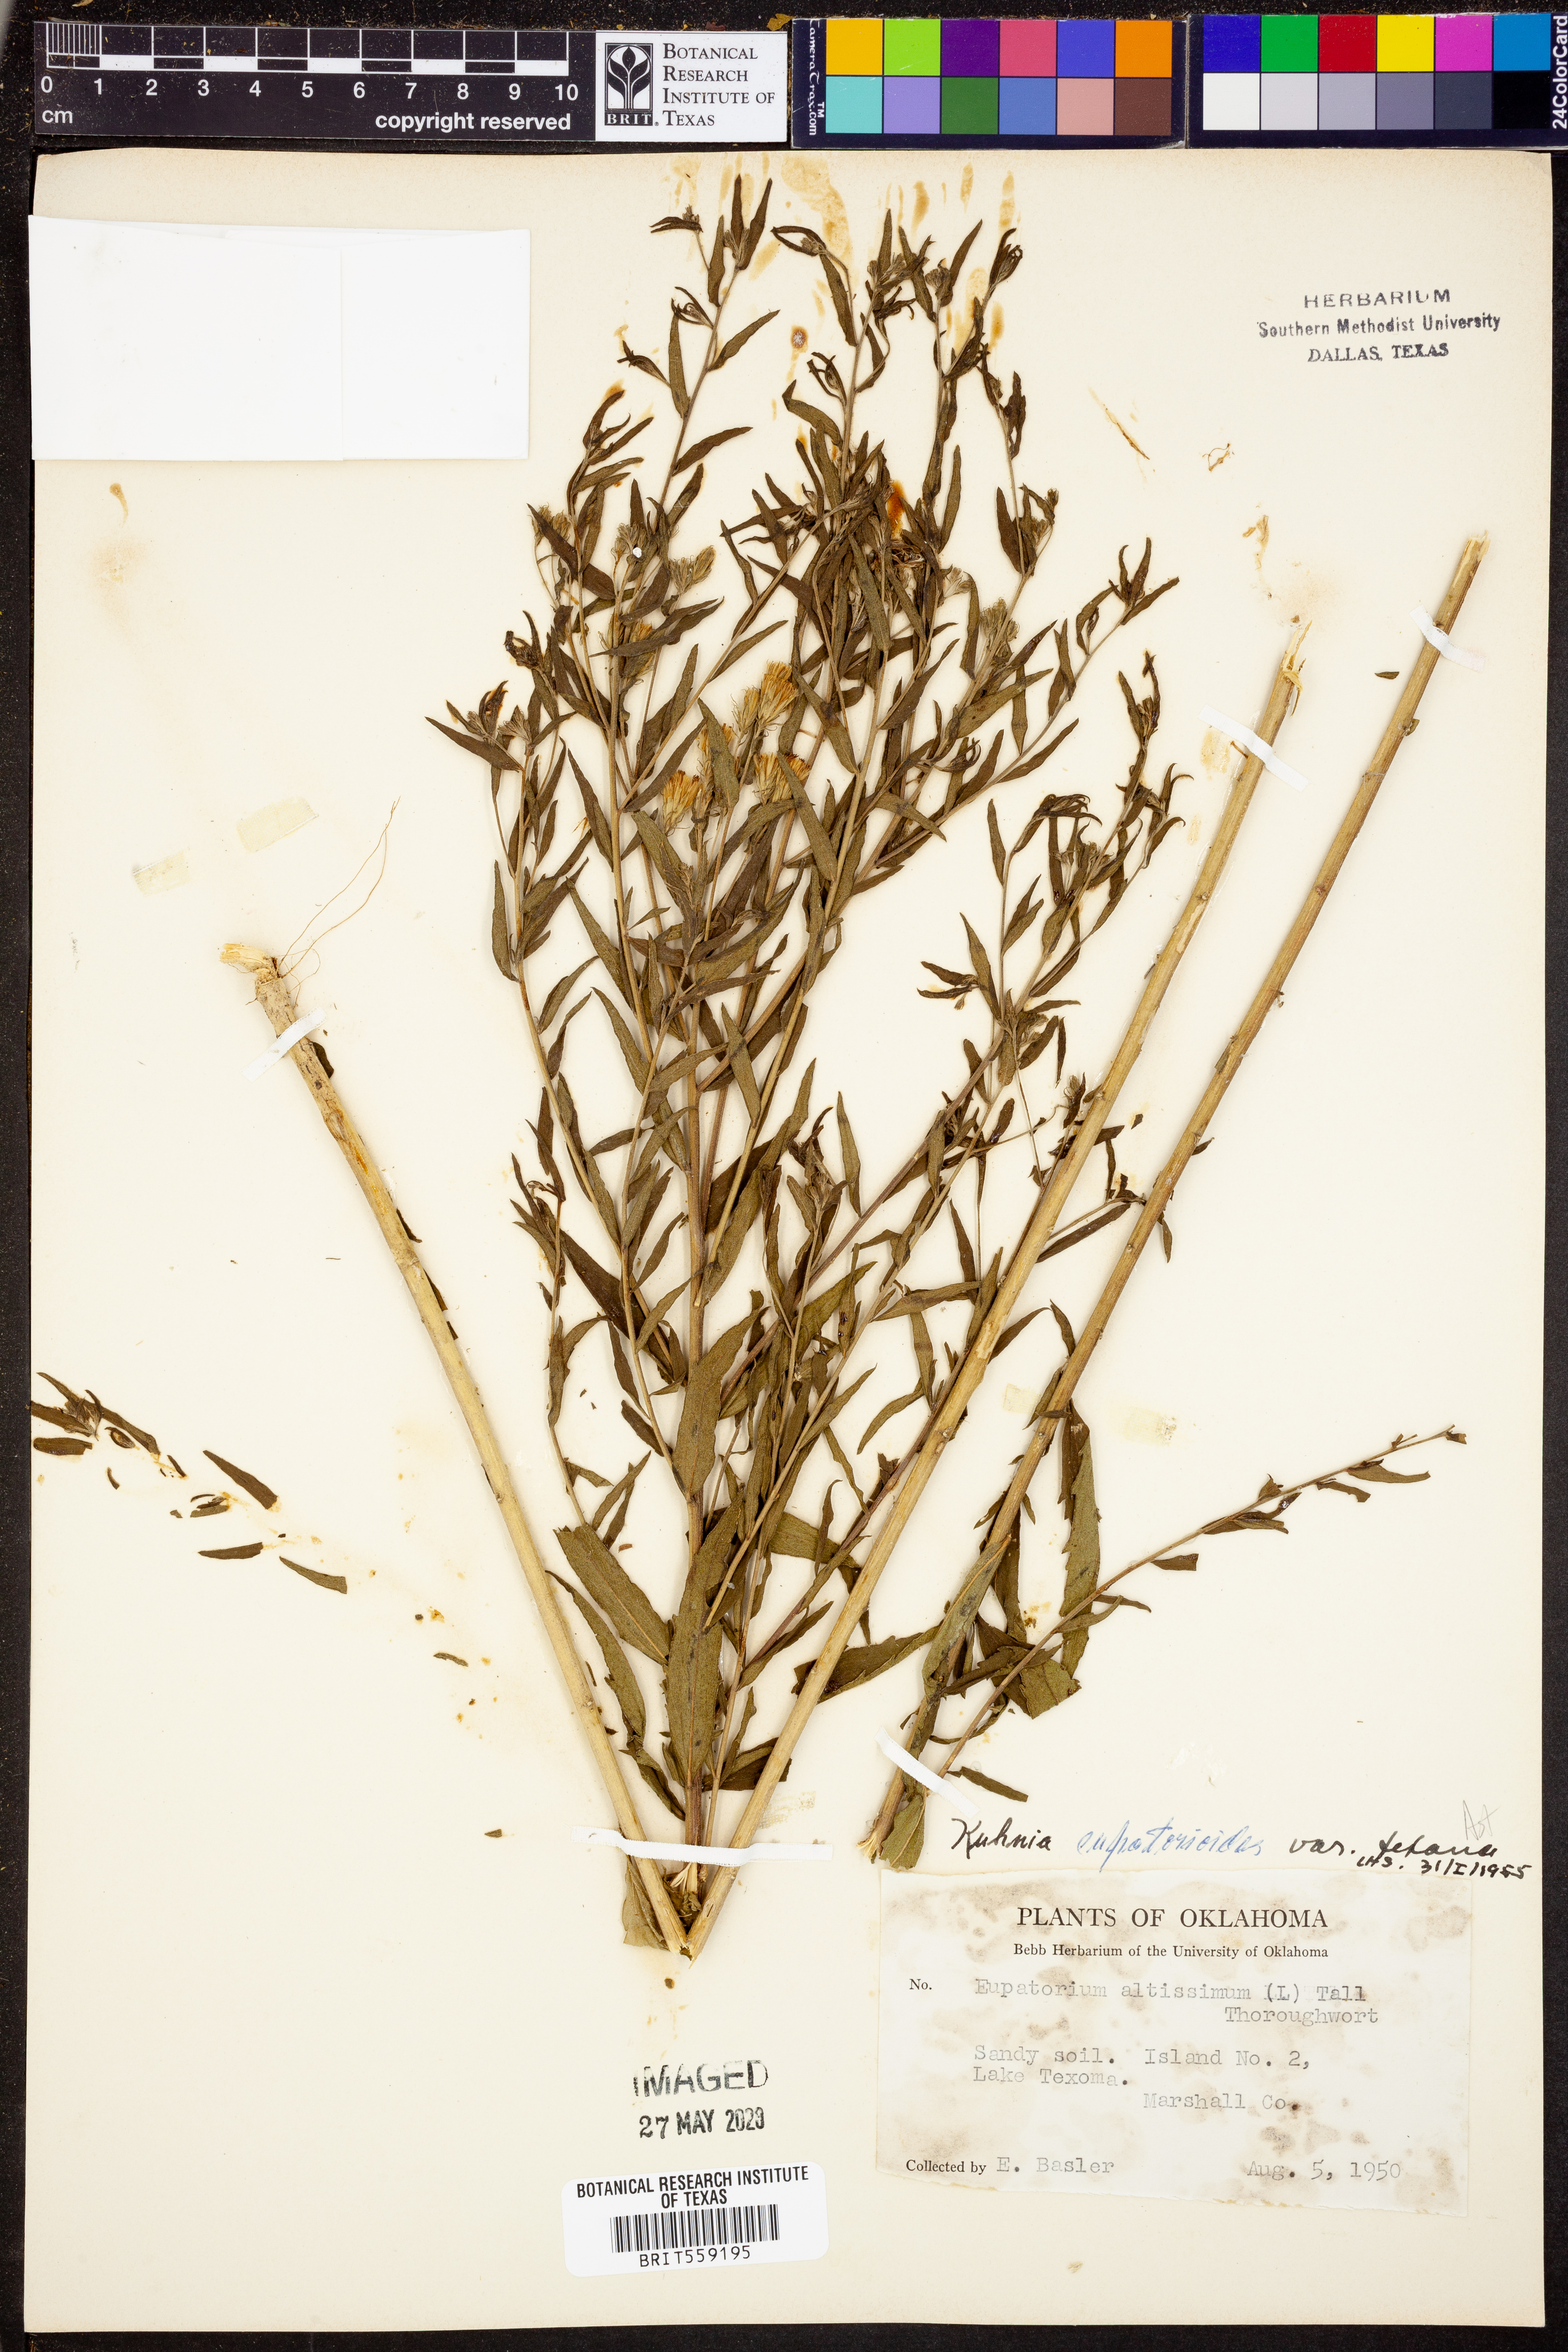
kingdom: Plantae
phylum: Tracheophyta
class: Magnoliopsida
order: Asterales
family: Asteraceae
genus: Brickellia
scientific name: Brickellia
